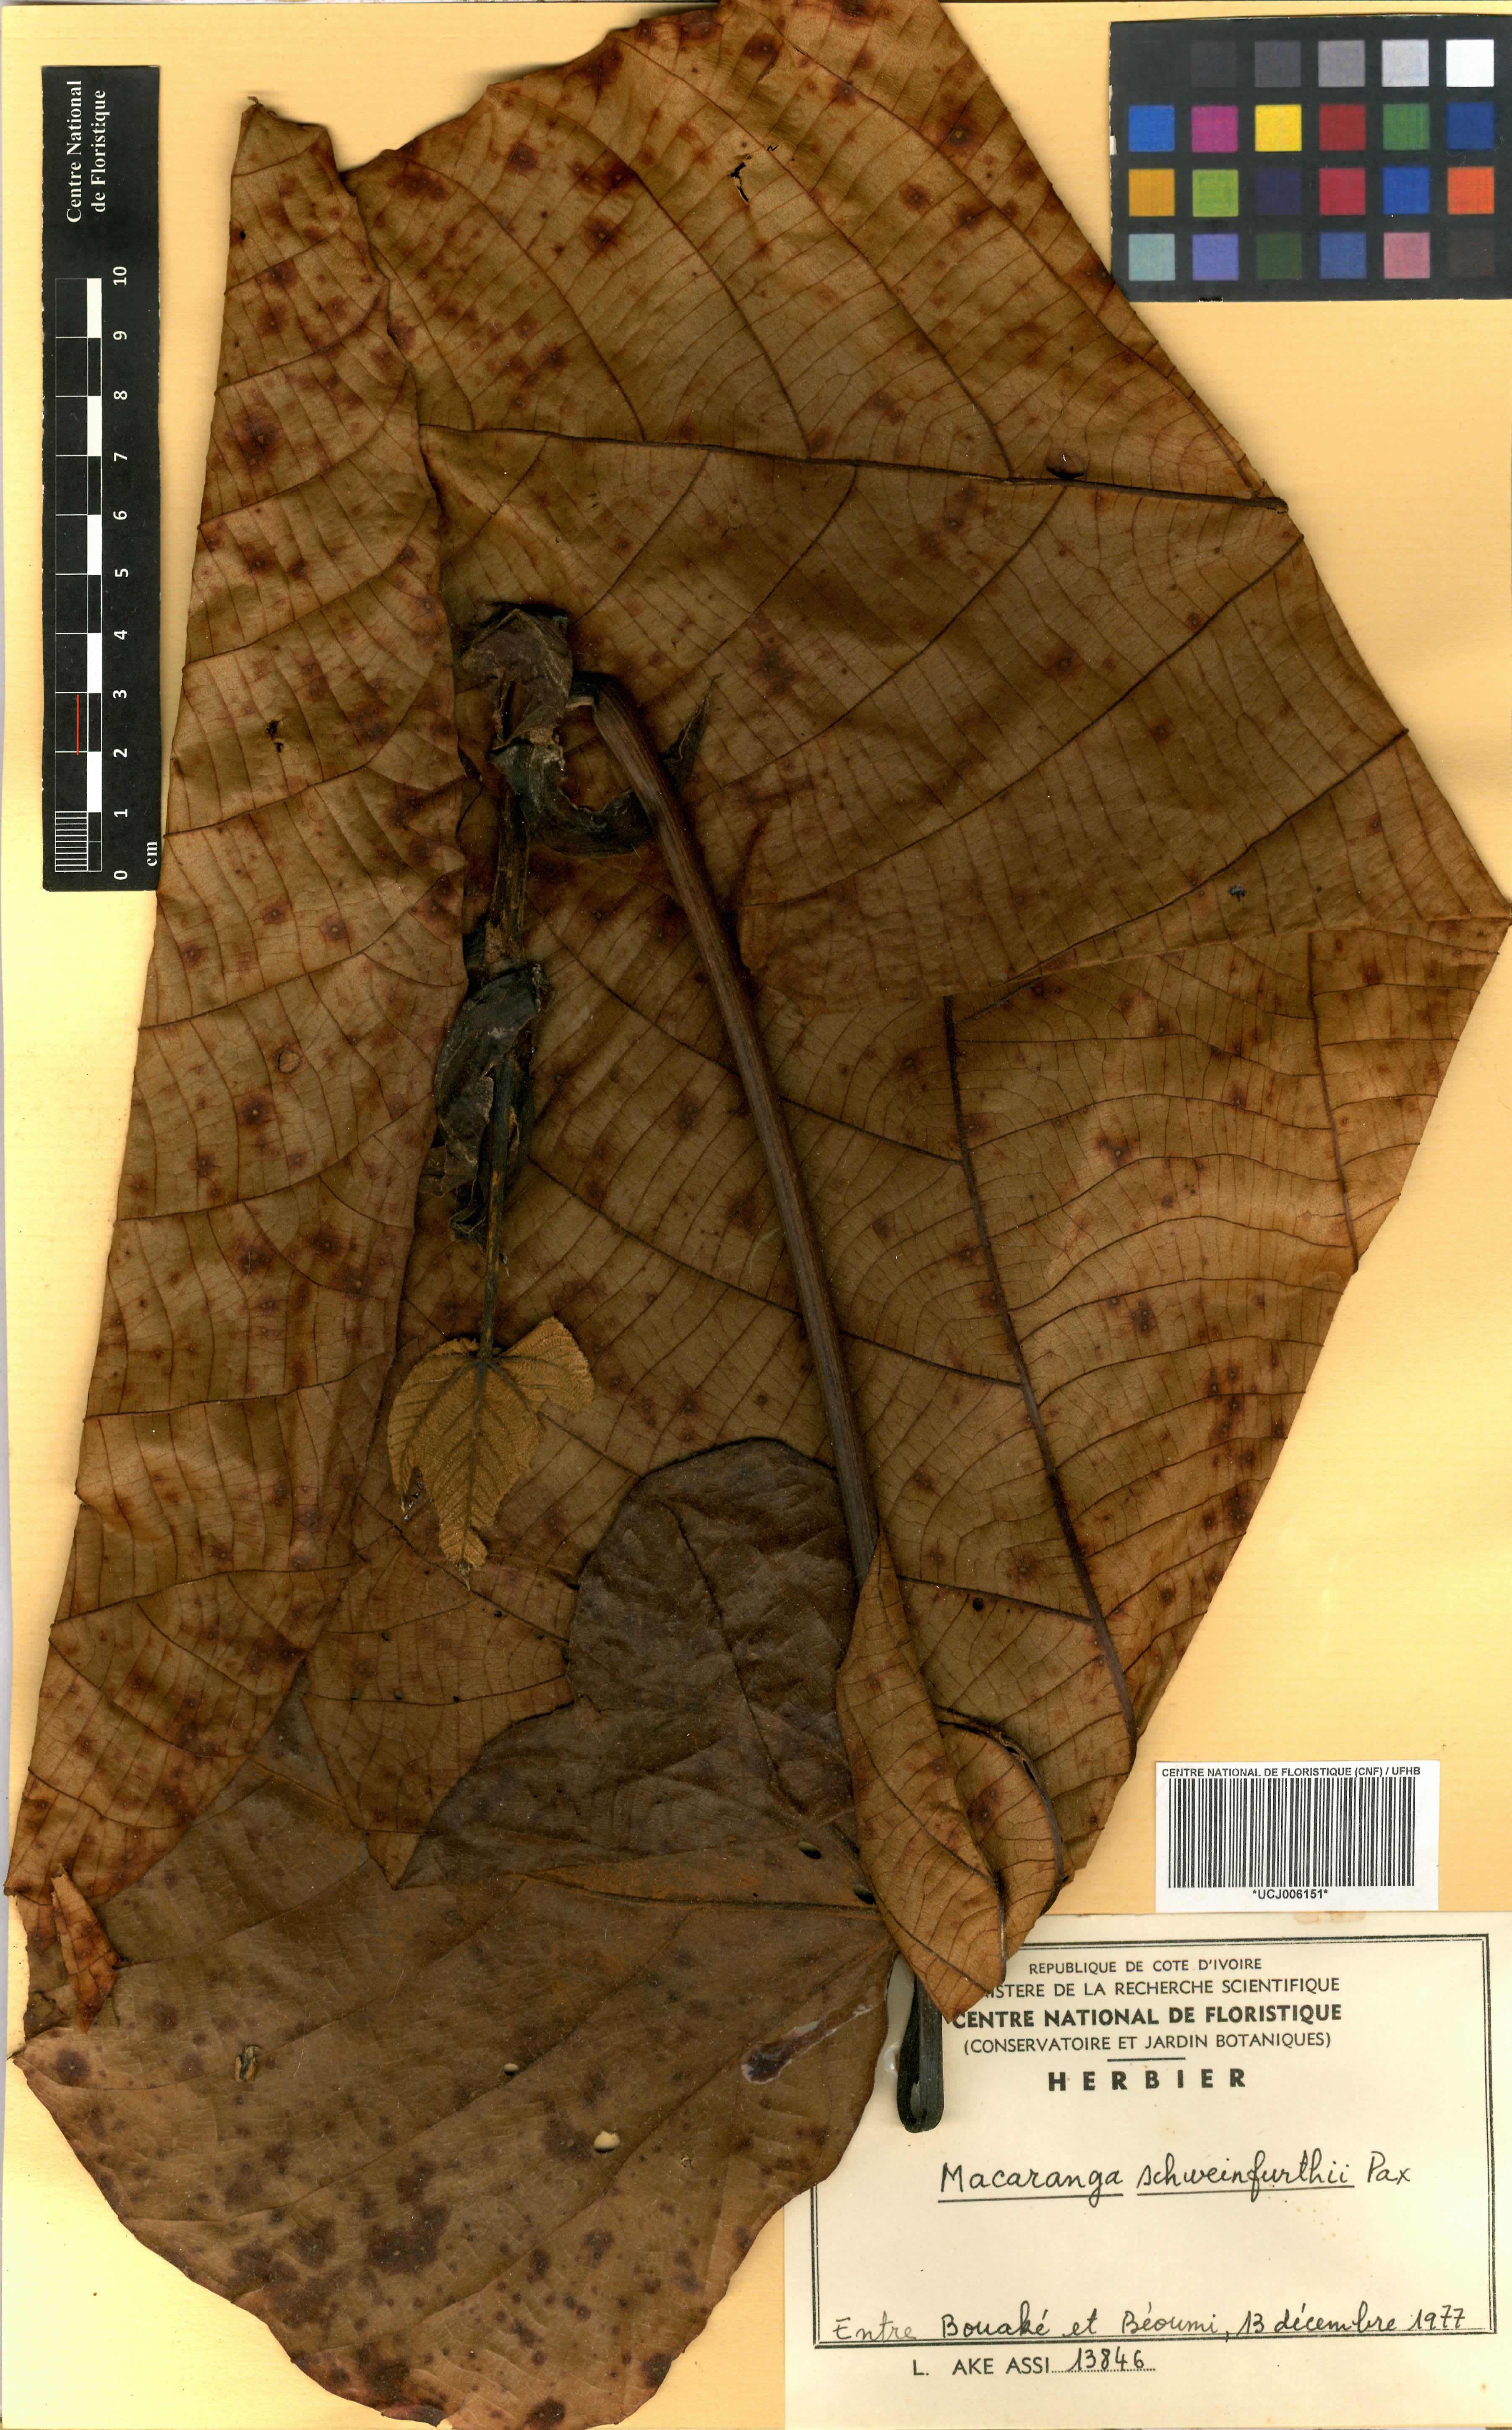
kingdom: Plantae
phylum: Tracheophyta
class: Magnoliopsida
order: Malpighiales
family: Euphorbiaceae
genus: Macaranga
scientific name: Macaranga schweinfurthii
